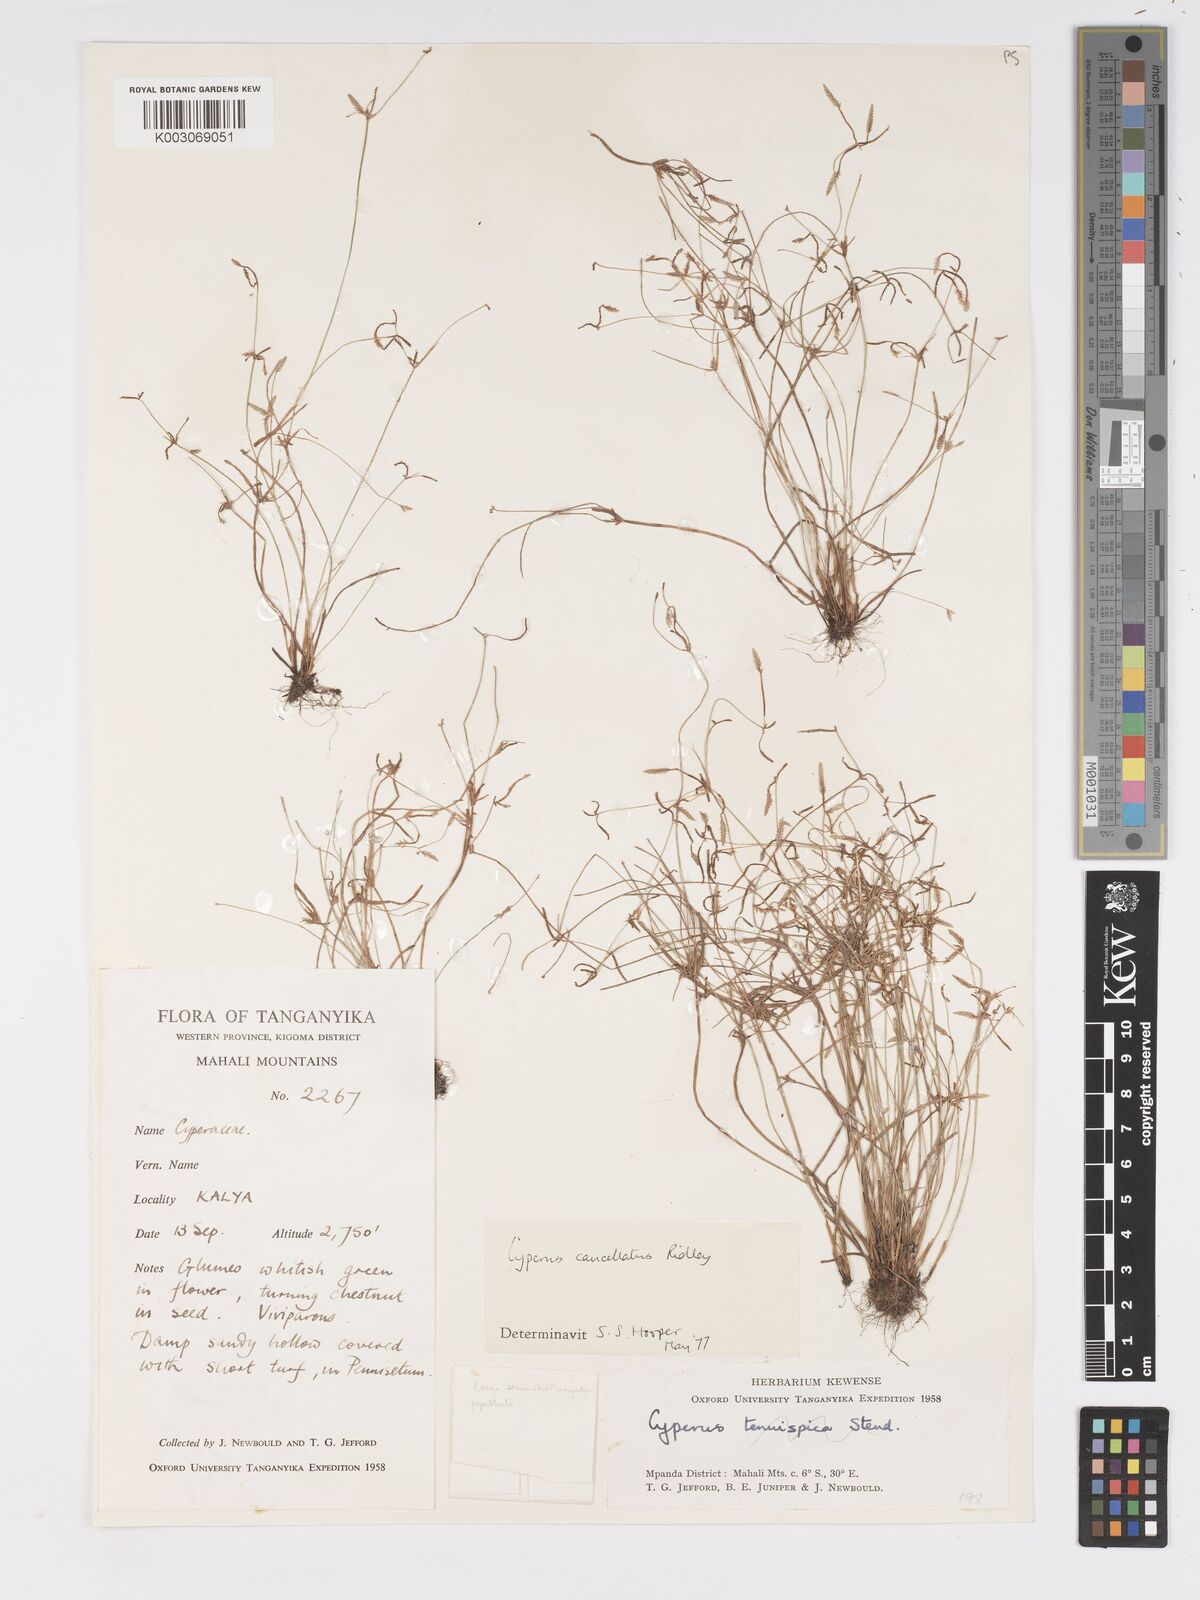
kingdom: Plantae
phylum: Tracheophyta
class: Liliopsida
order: Poales
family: Cyperaceae
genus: Cyperus
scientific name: Cyperus cancellatus
